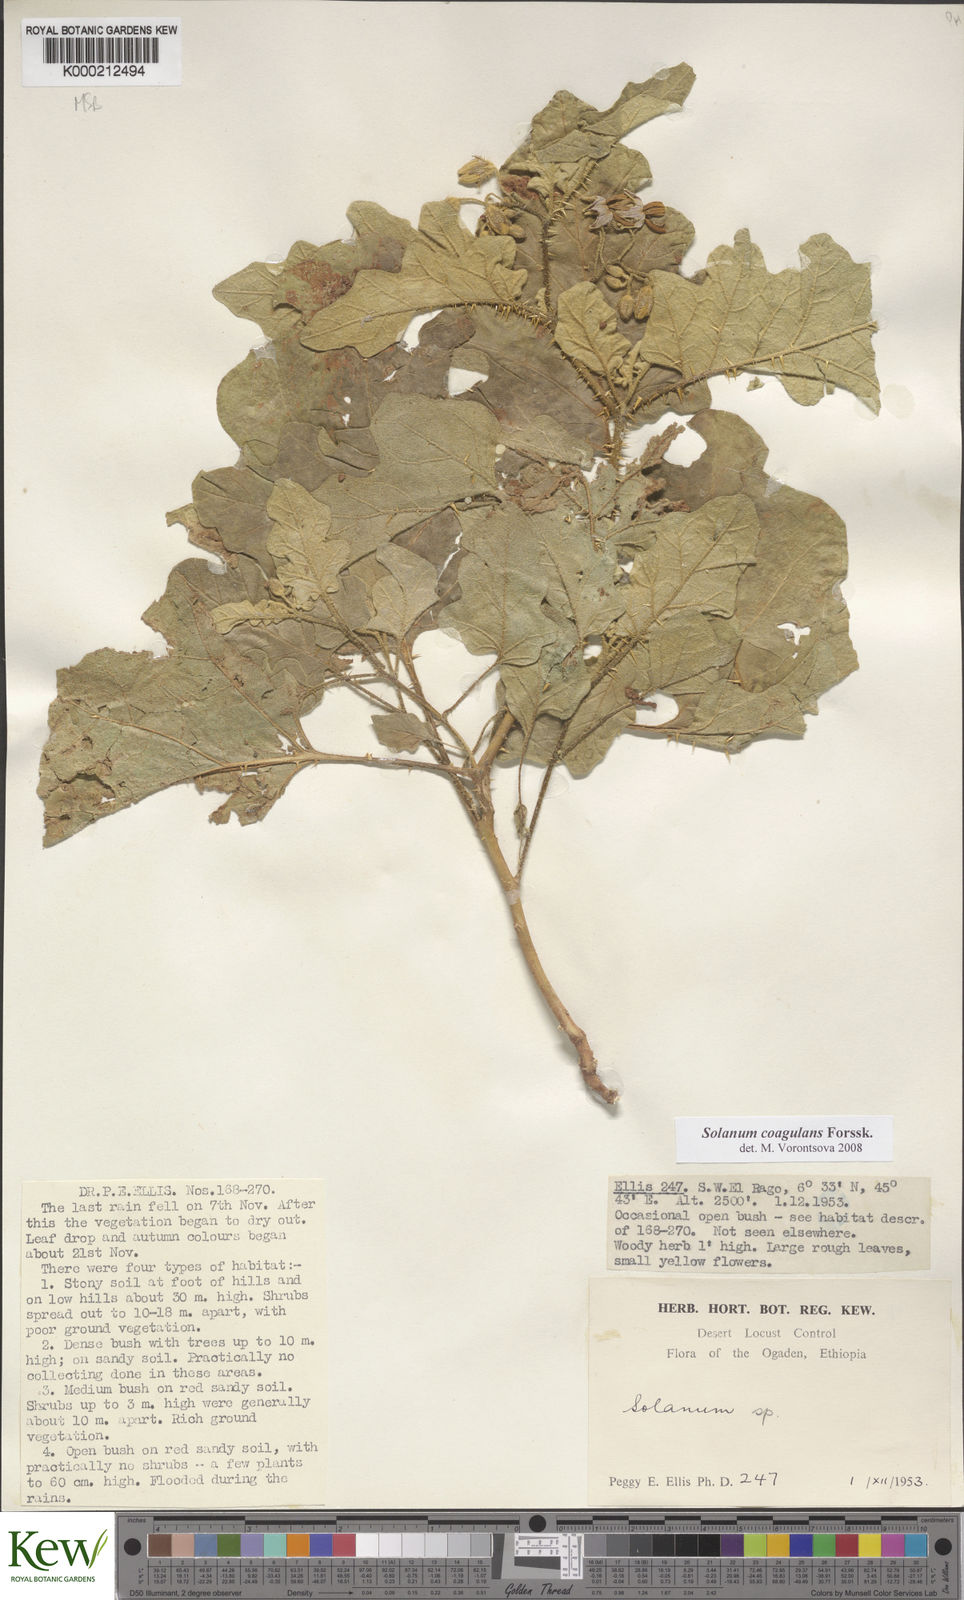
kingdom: Plantae
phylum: Tracheophyta
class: Magnoliopsida
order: Solanales
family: Solanaceae
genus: Solanum
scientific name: Solanum coagulans
